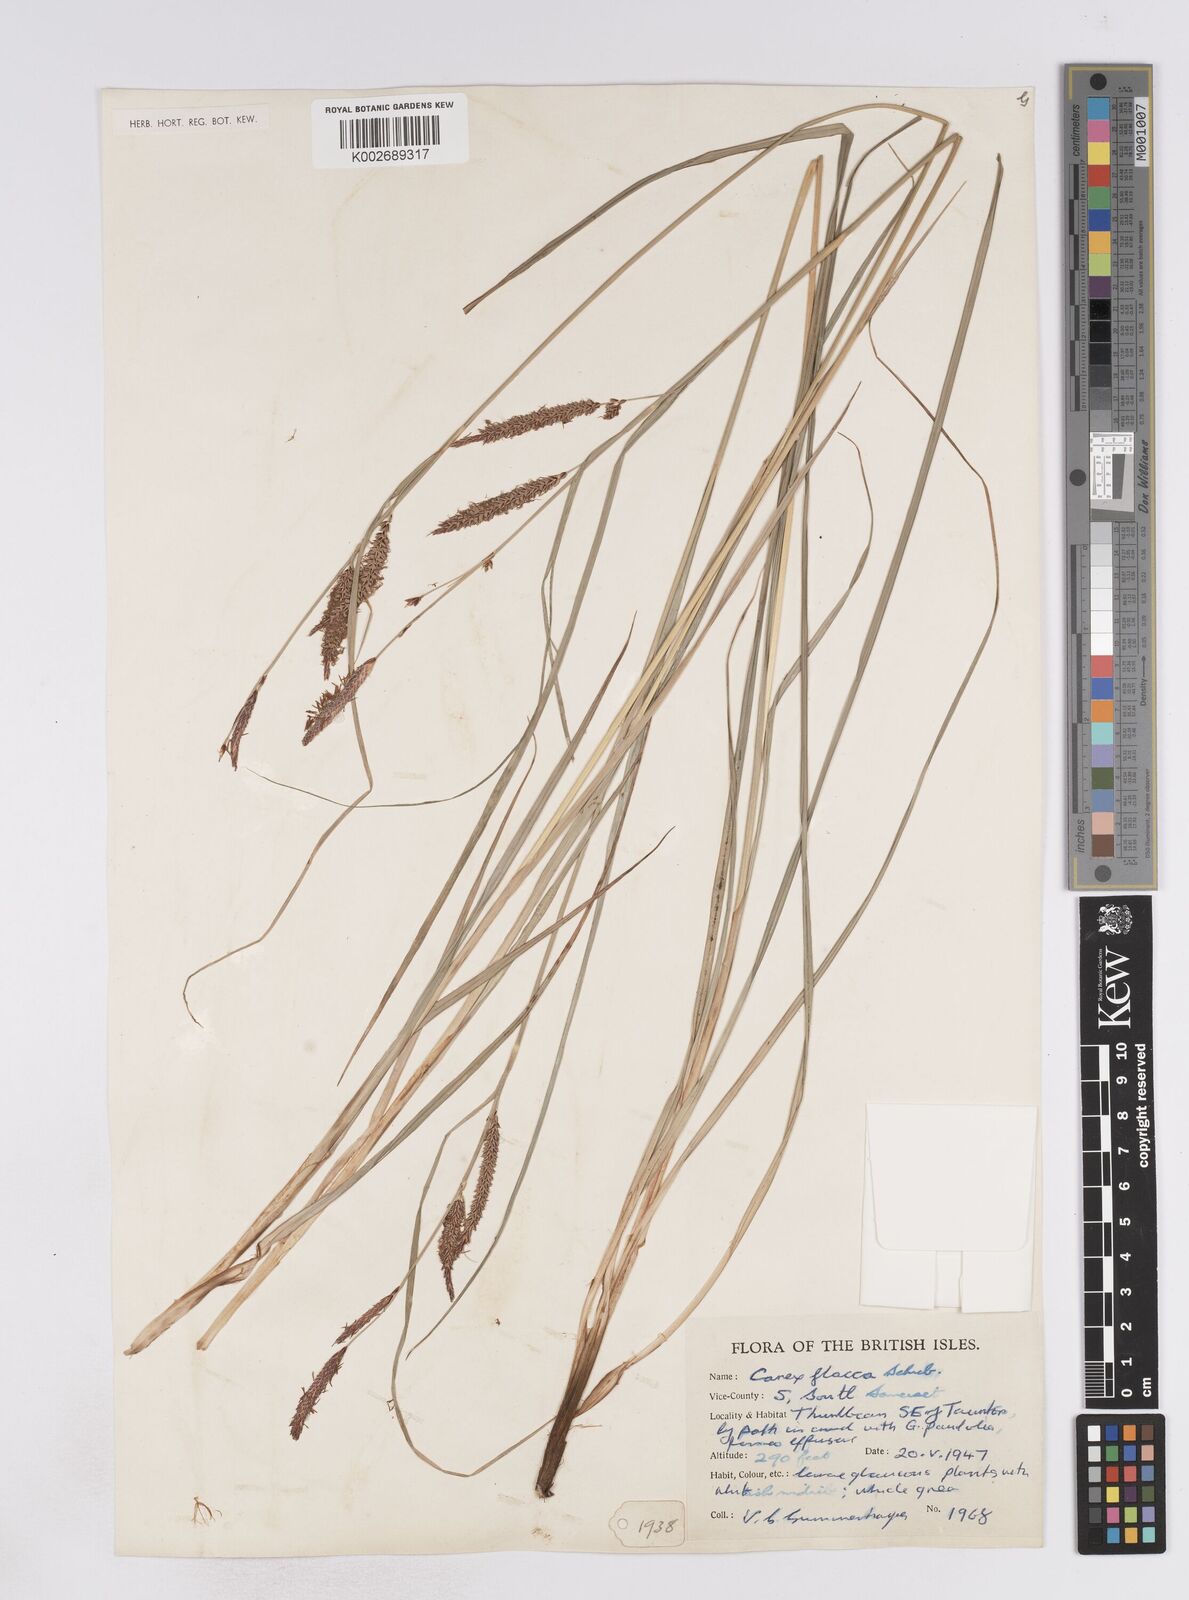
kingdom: Plantae
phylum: Tracheophyta
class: Liliopsida
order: Poales
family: Cyperaceae
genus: Carex
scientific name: Carex flacca
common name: Glaucous sedge
